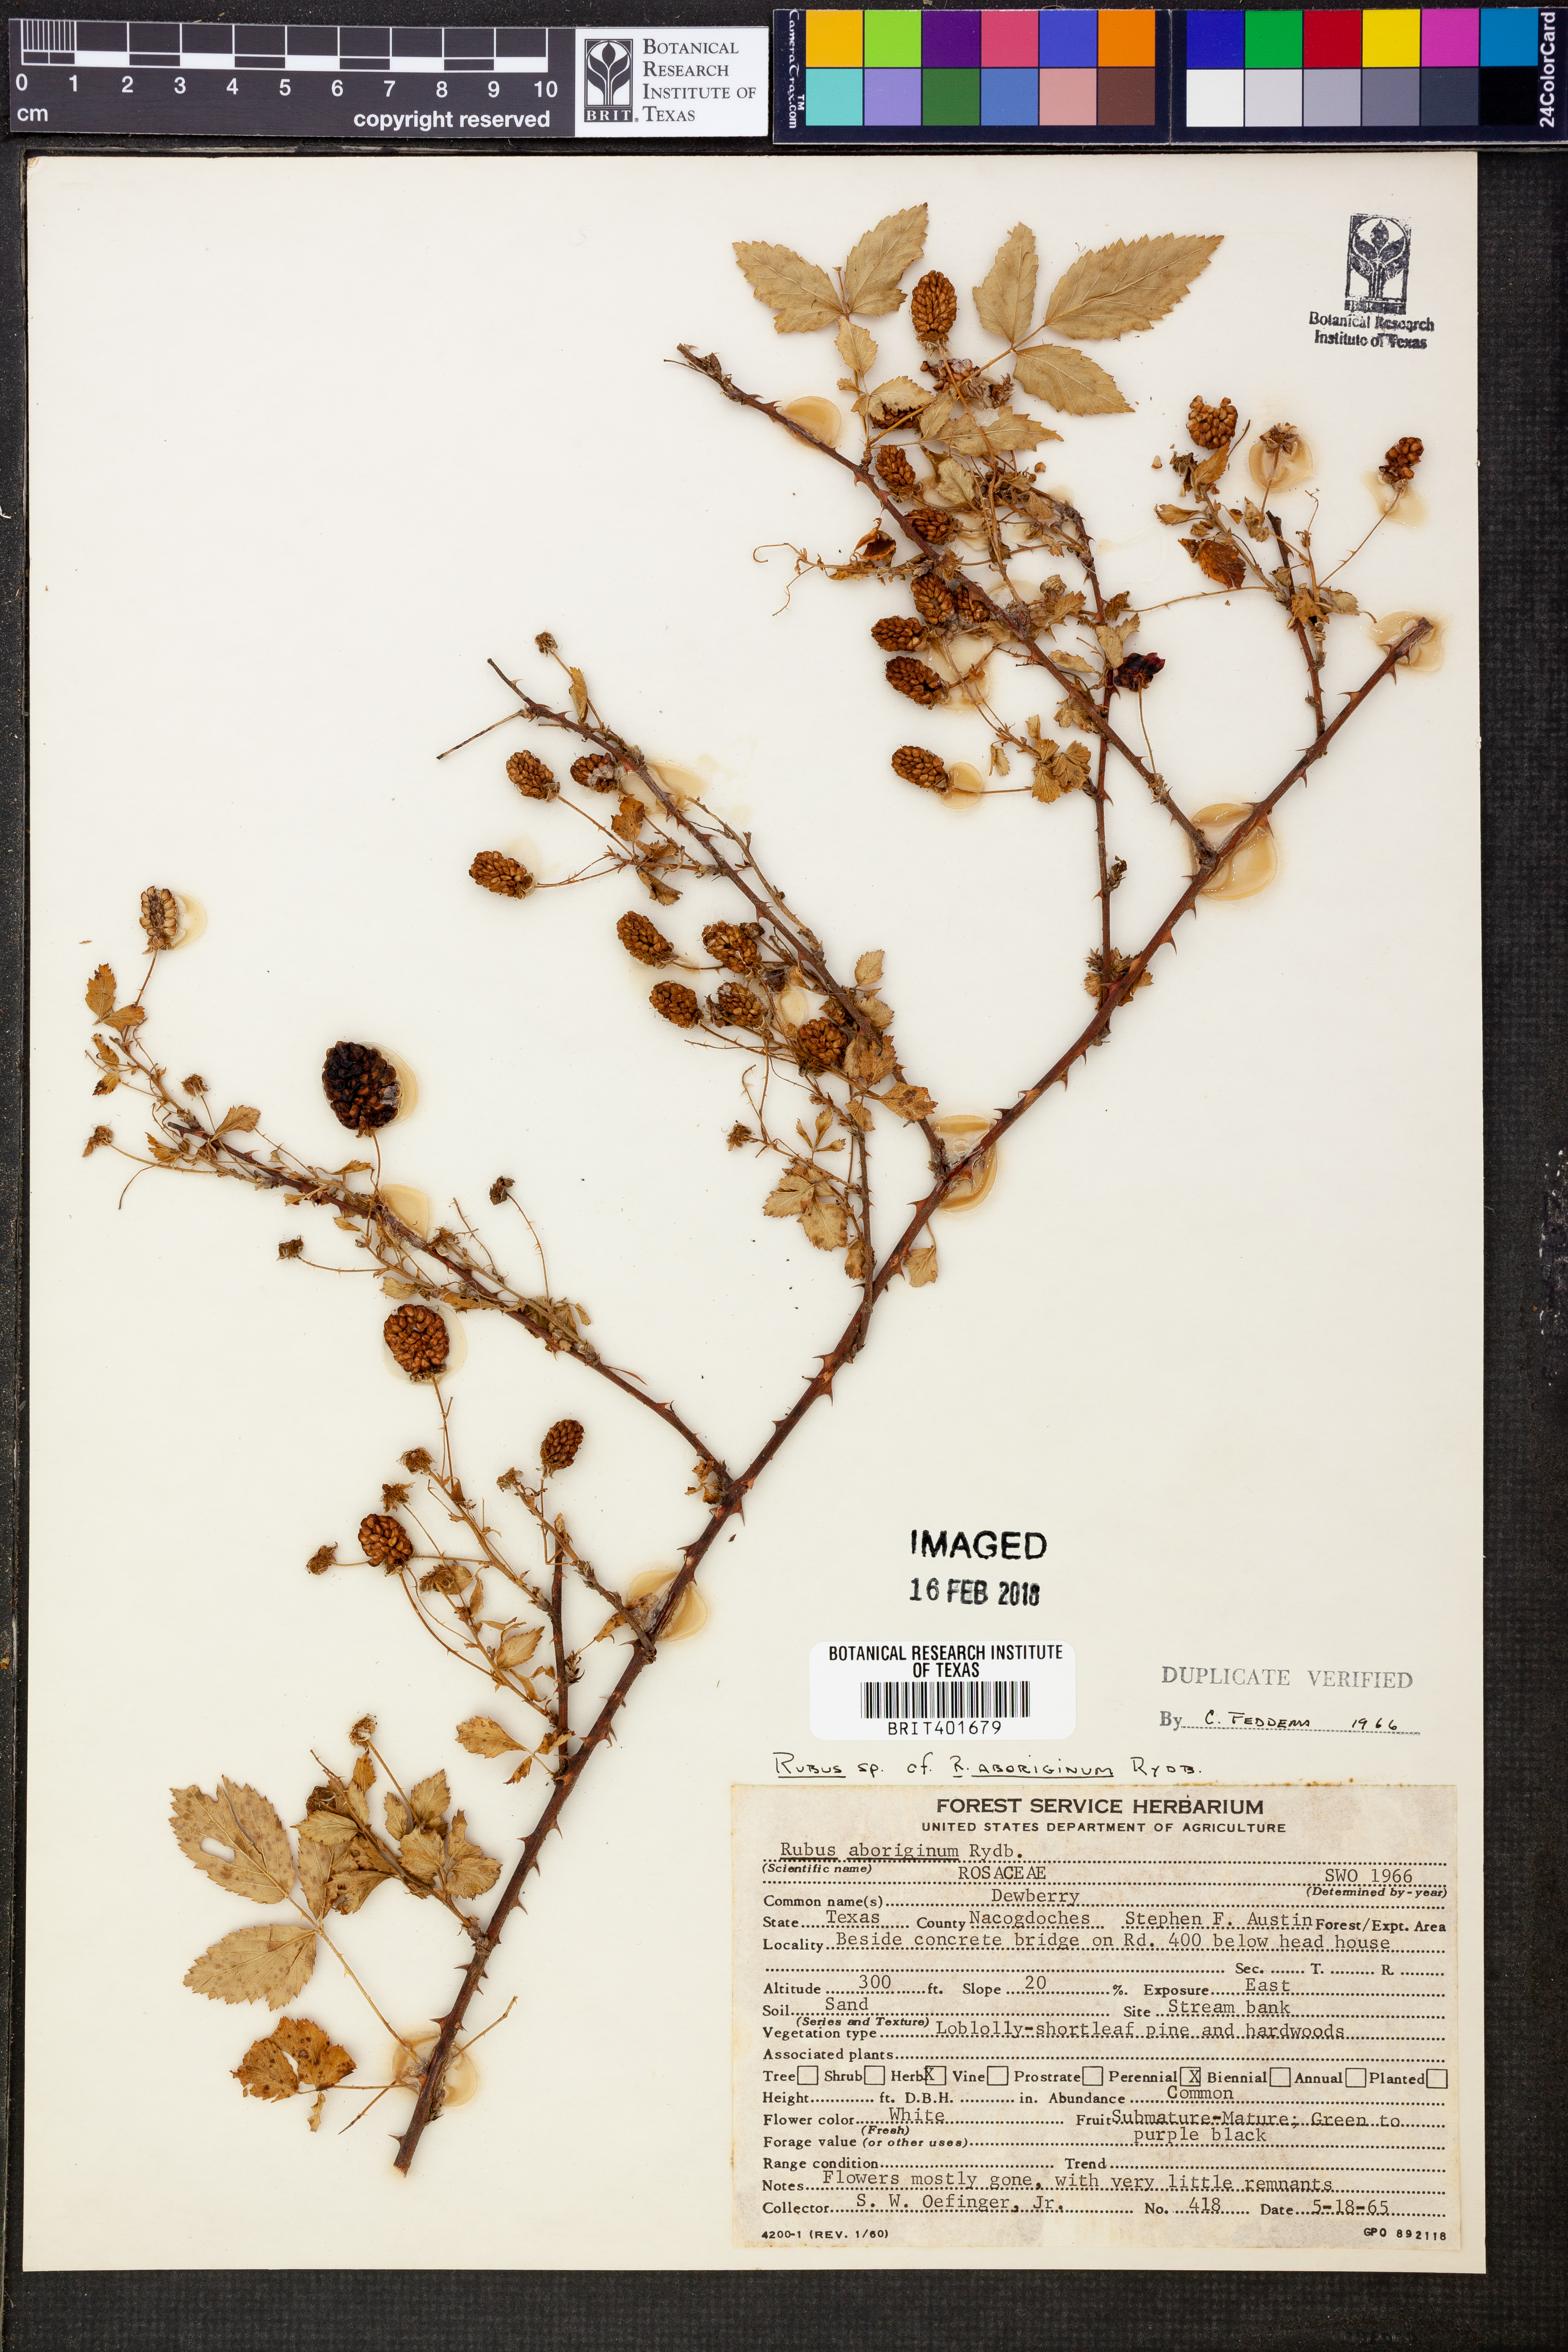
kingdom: Plantae
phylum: Tracheophyta
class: Magnoliopsida
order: Rosales
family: Rosaceae
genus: Rubus
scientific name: Rubus aboriginum
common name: Mayes dewberry
